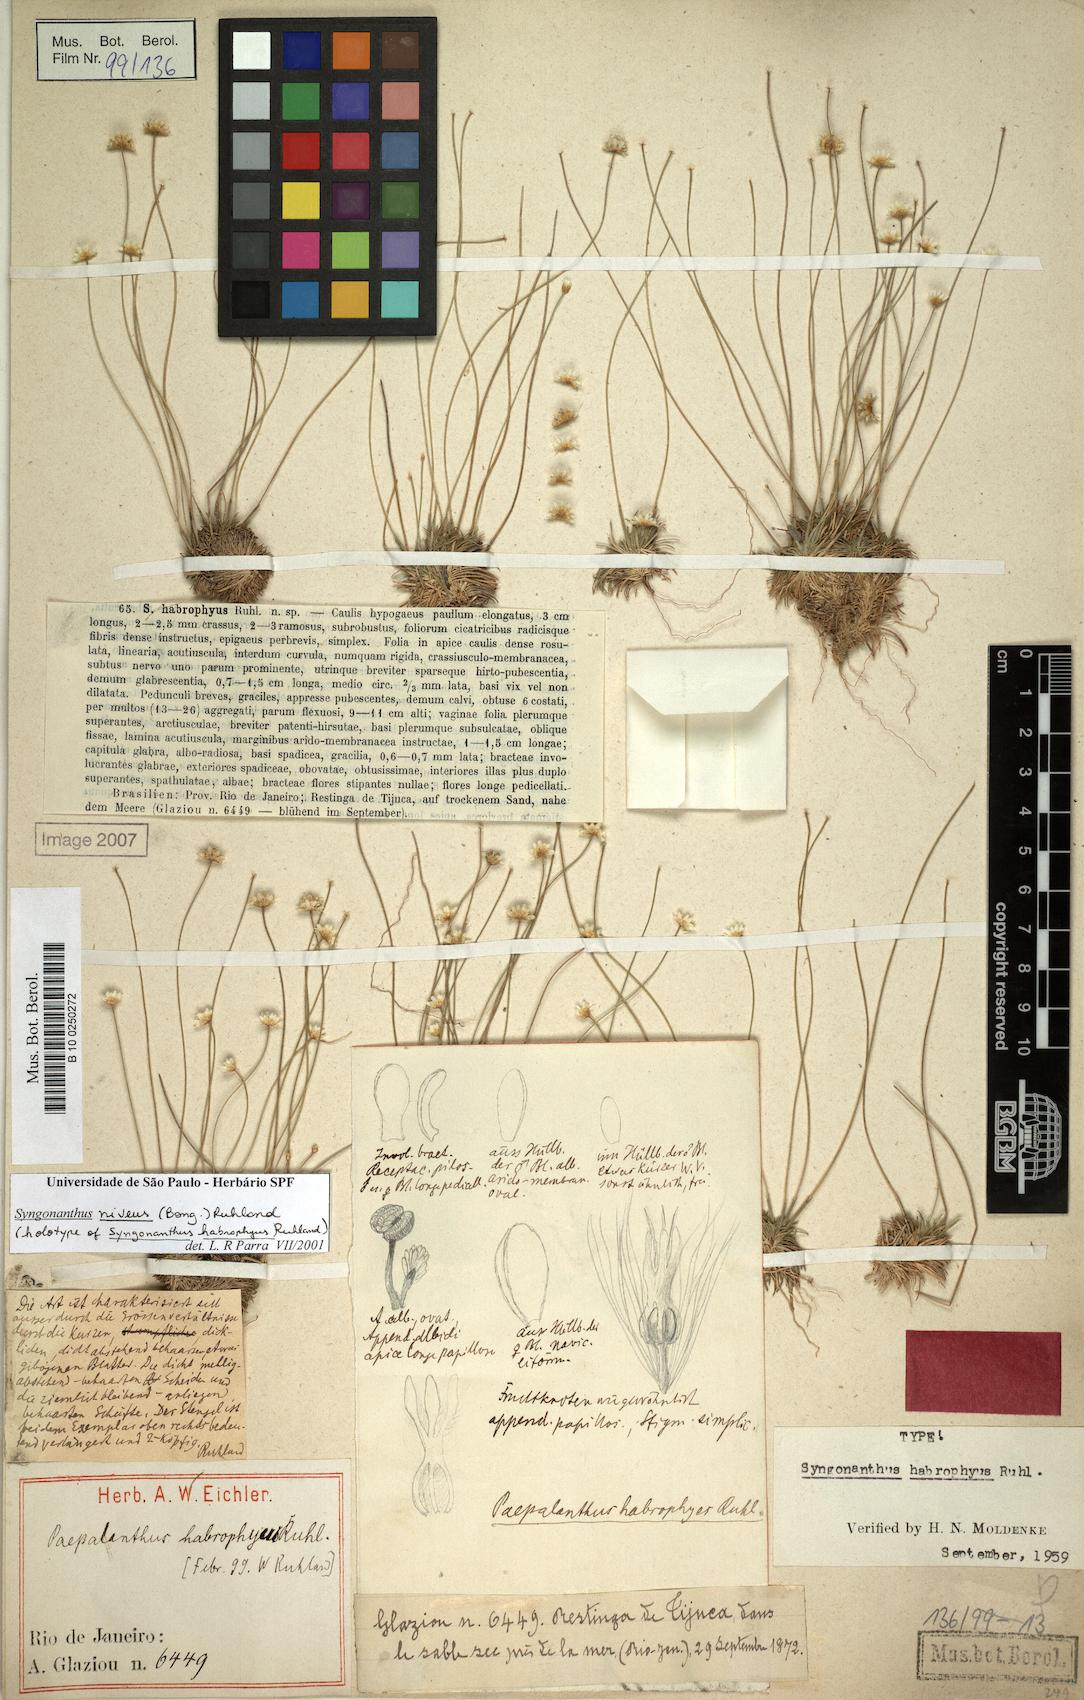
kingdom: Plantae
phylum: Tracheophyta
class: Liliopsida
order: Poales
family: Eriocaulaceae
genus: Comanthera
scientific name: Comanthera nivea
